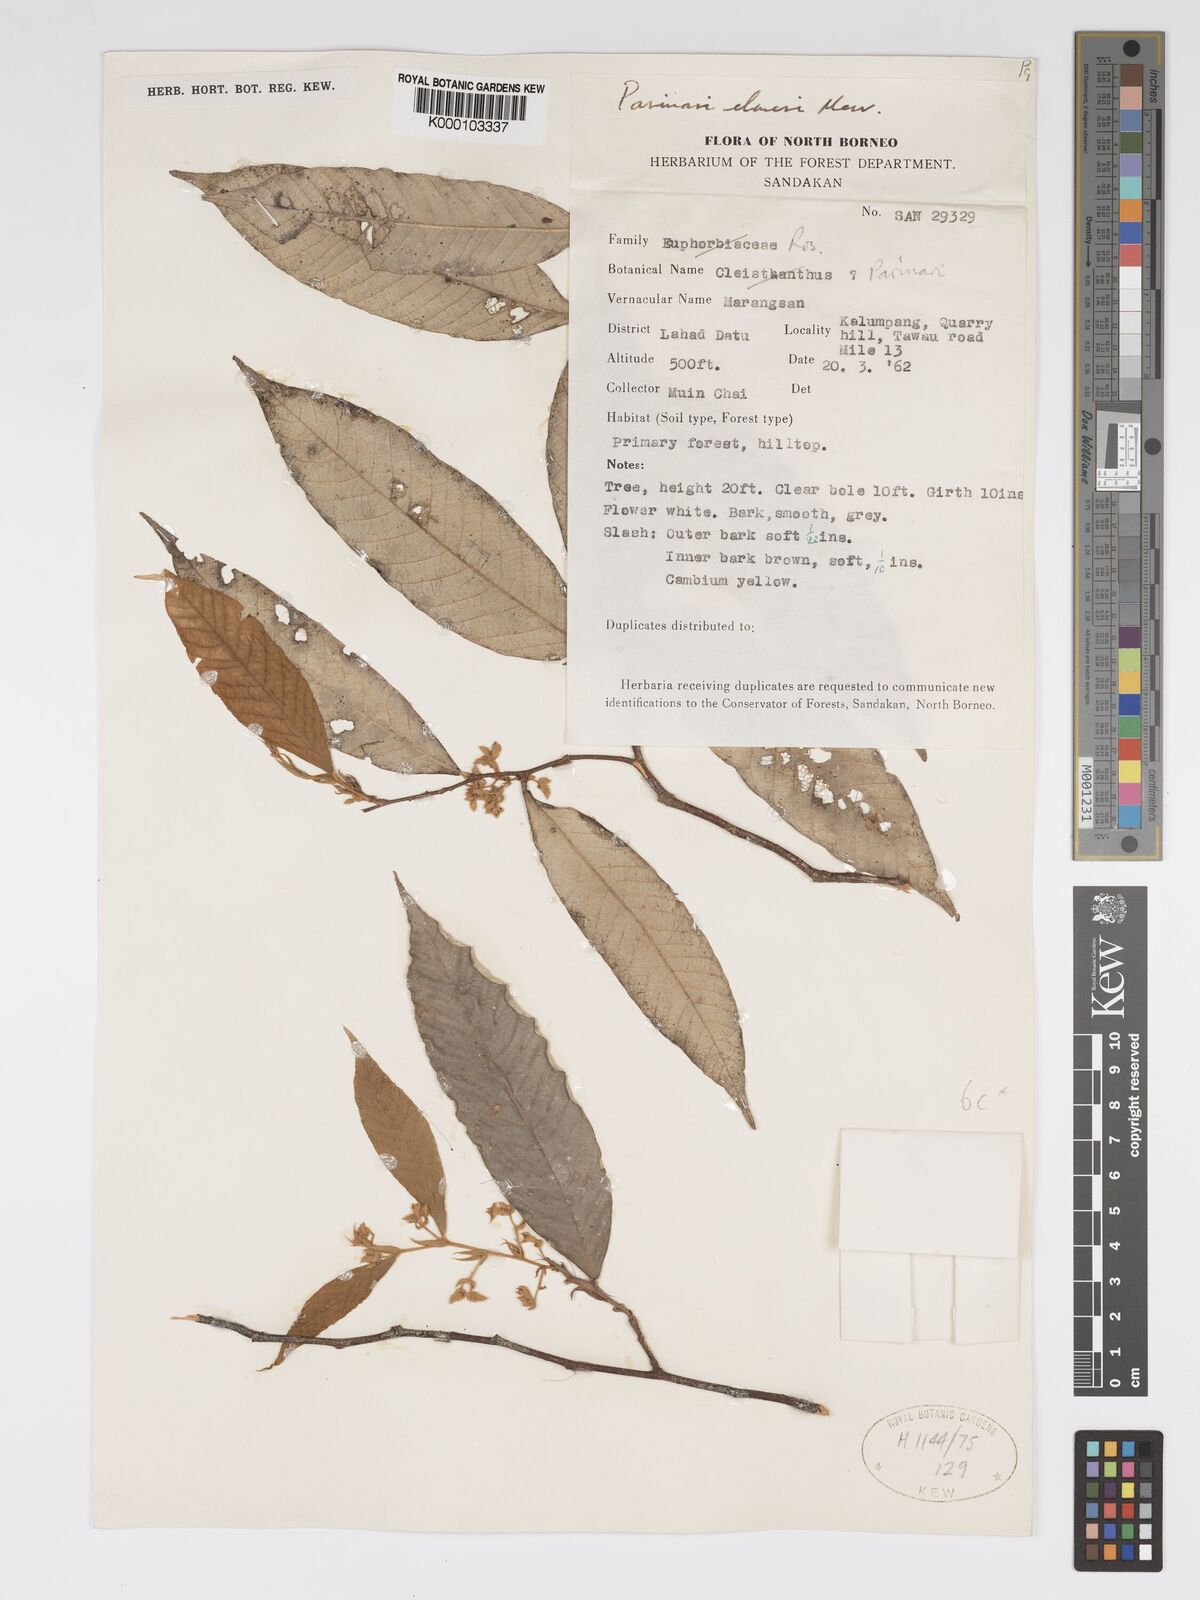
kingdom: Plantae
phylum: Tracheophyta
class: Magnoliopsida
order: Malpighiales
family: Chrysobalanaceae
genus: Parinari
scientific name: Parinari elmeri
